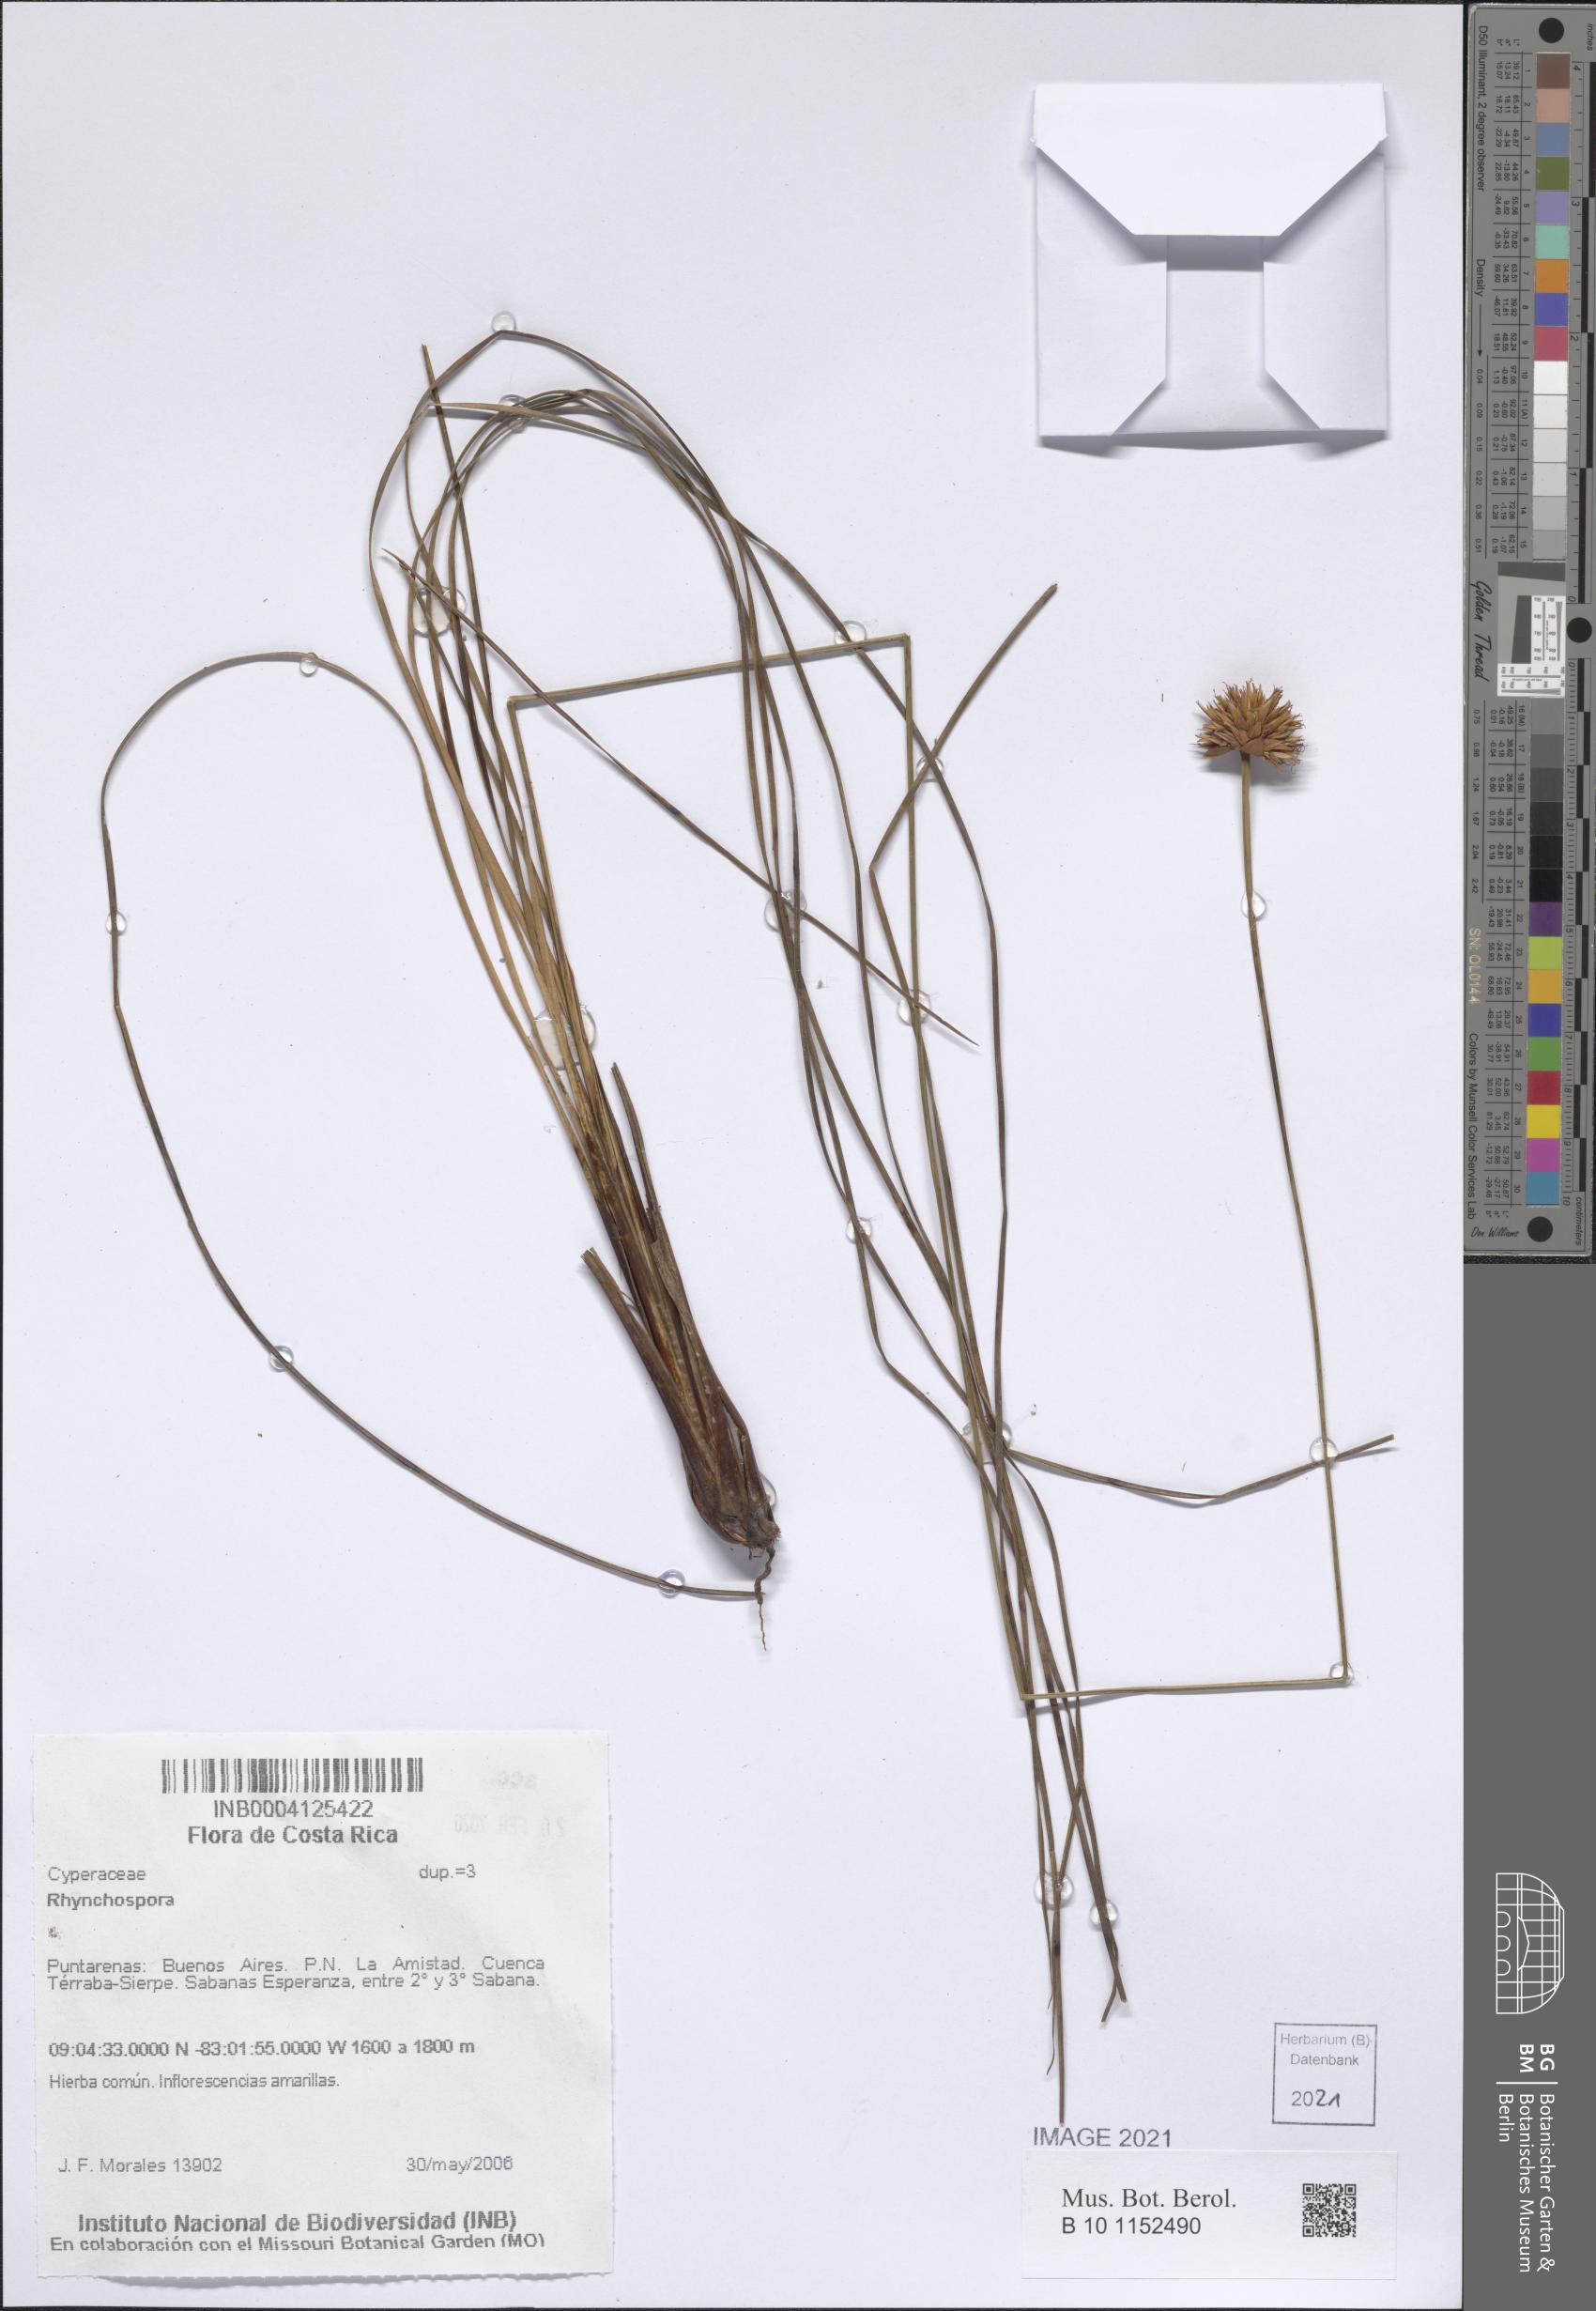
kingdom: Plantae
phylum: Tracheophyta
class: Liliopsida
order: Poales
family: Cyperaceae
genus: Rhynchospora
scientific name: Rhynchospora
